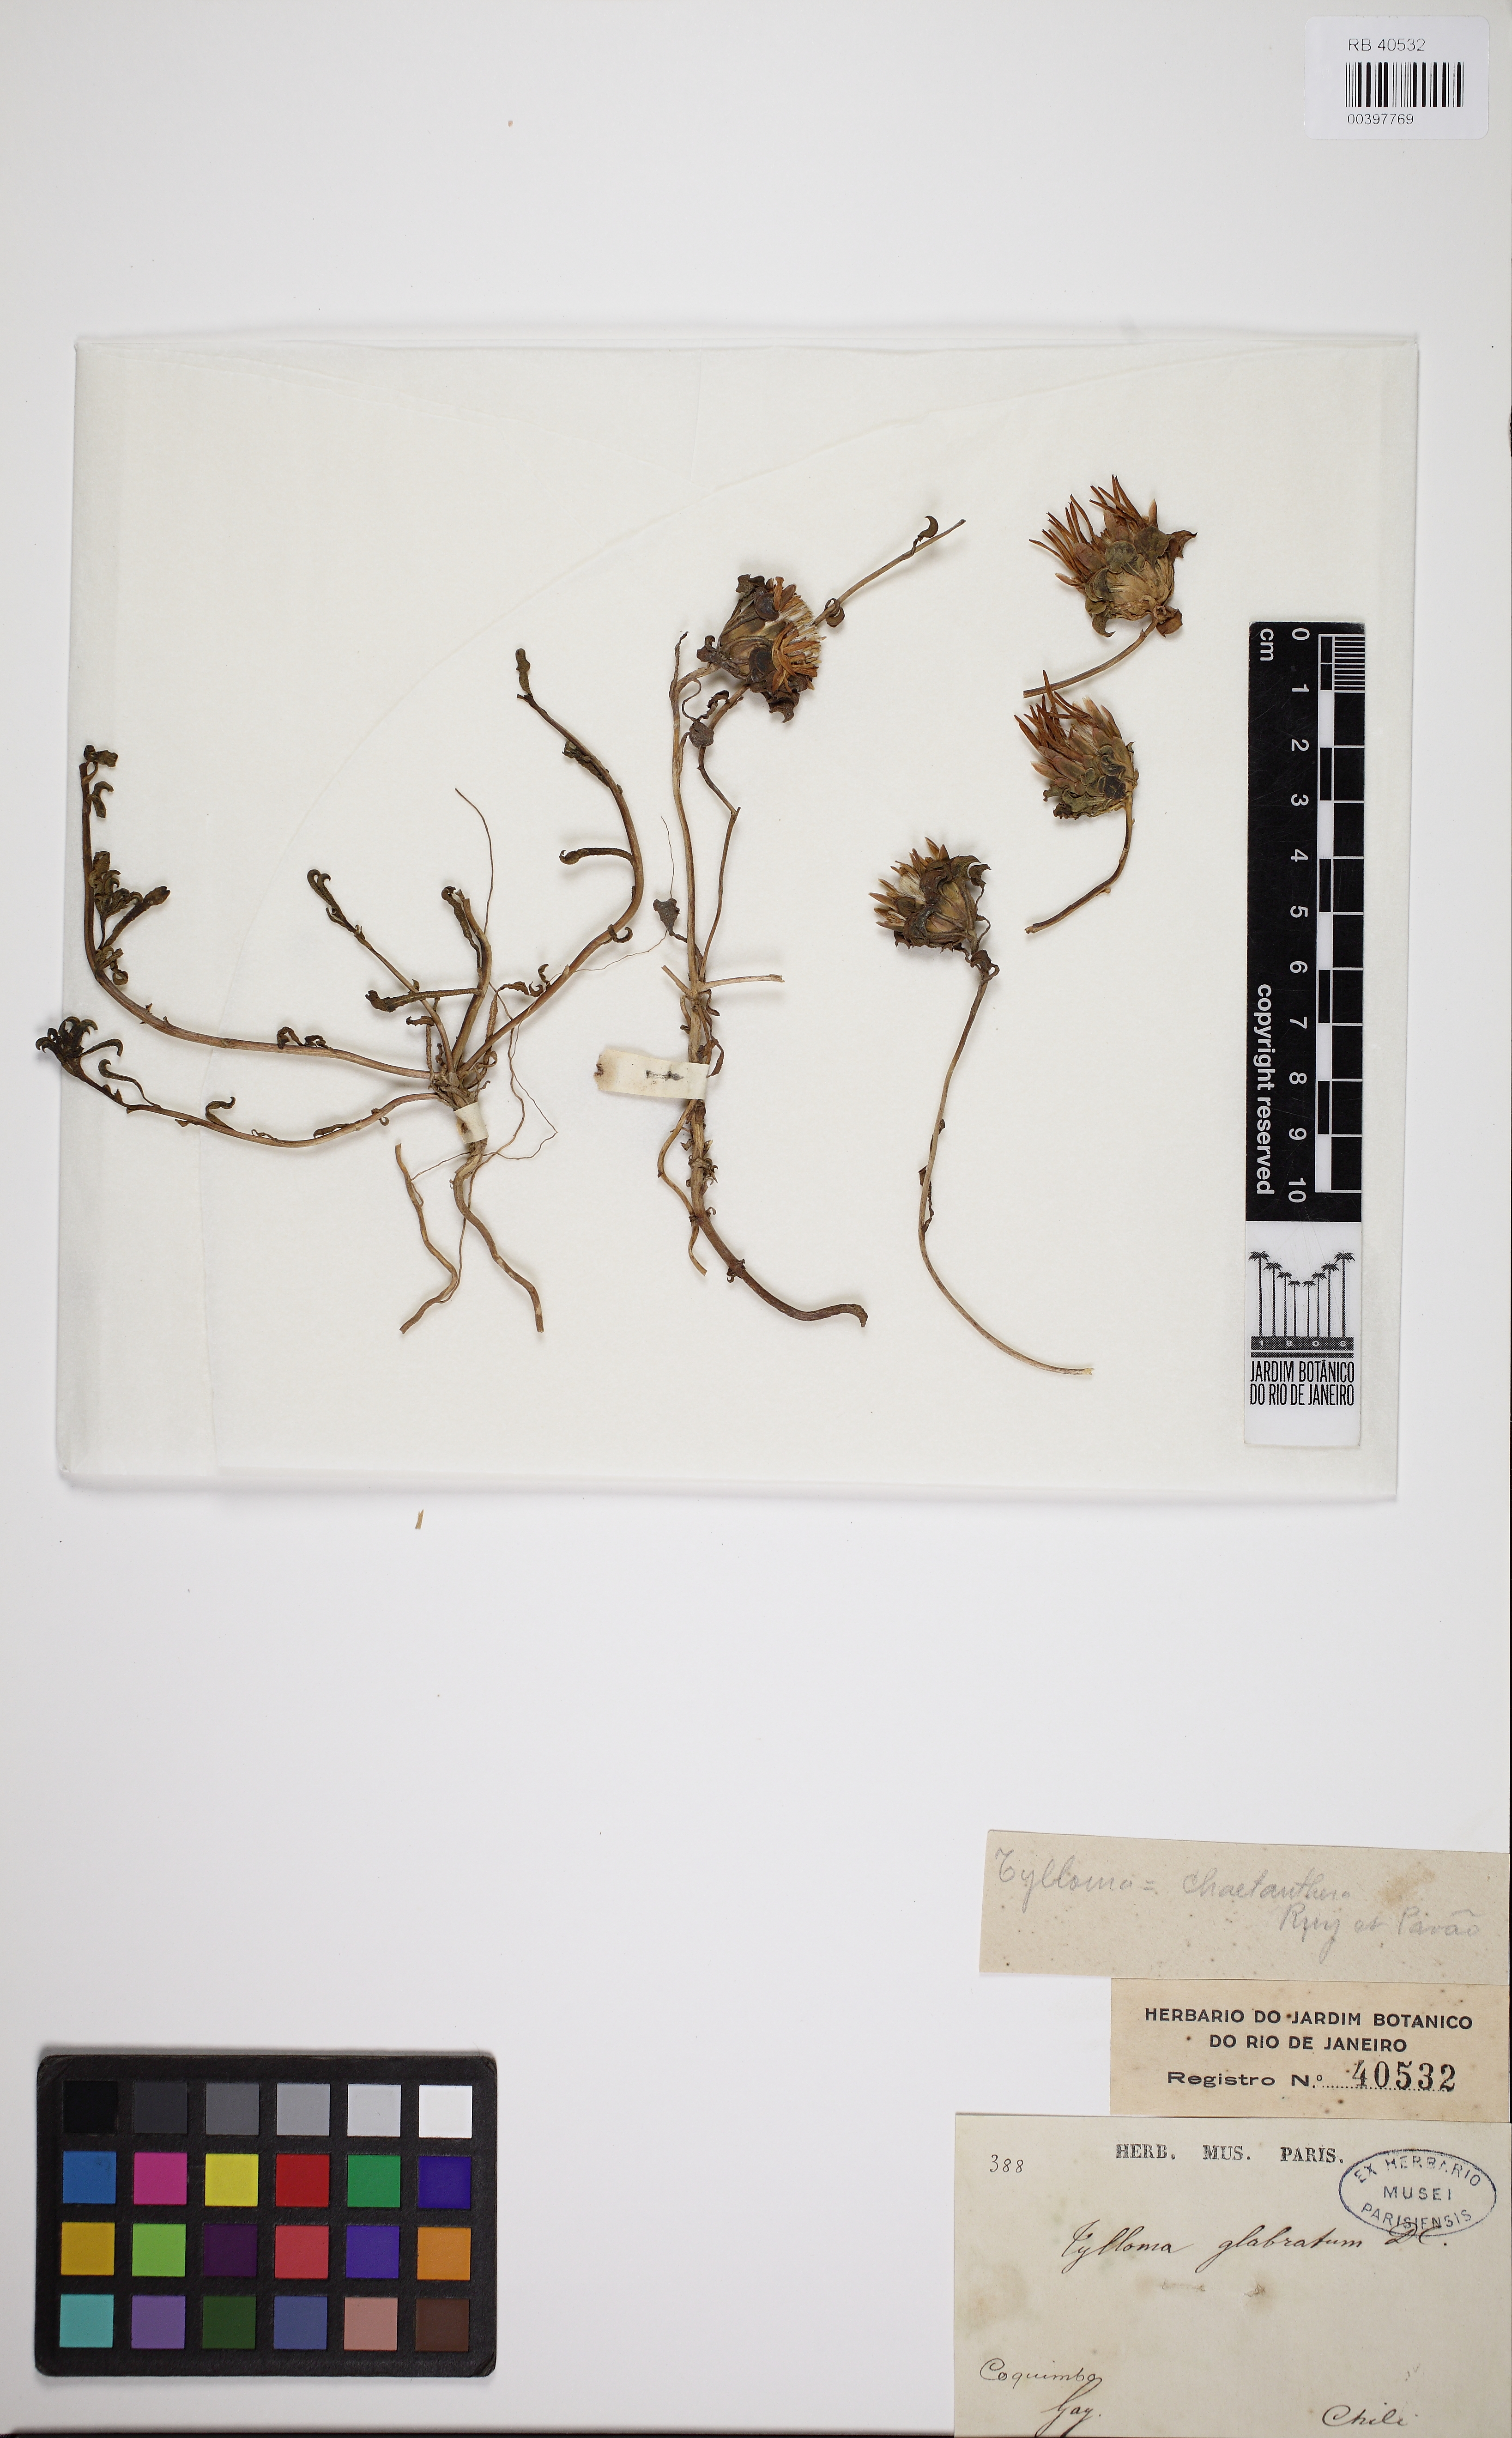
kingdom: Plantae
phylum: Tracheophyta
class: Magnoliopsida
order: Asterales
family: Asteraceae
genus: Chaetanthera
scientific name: Chaetanthera glabrata
